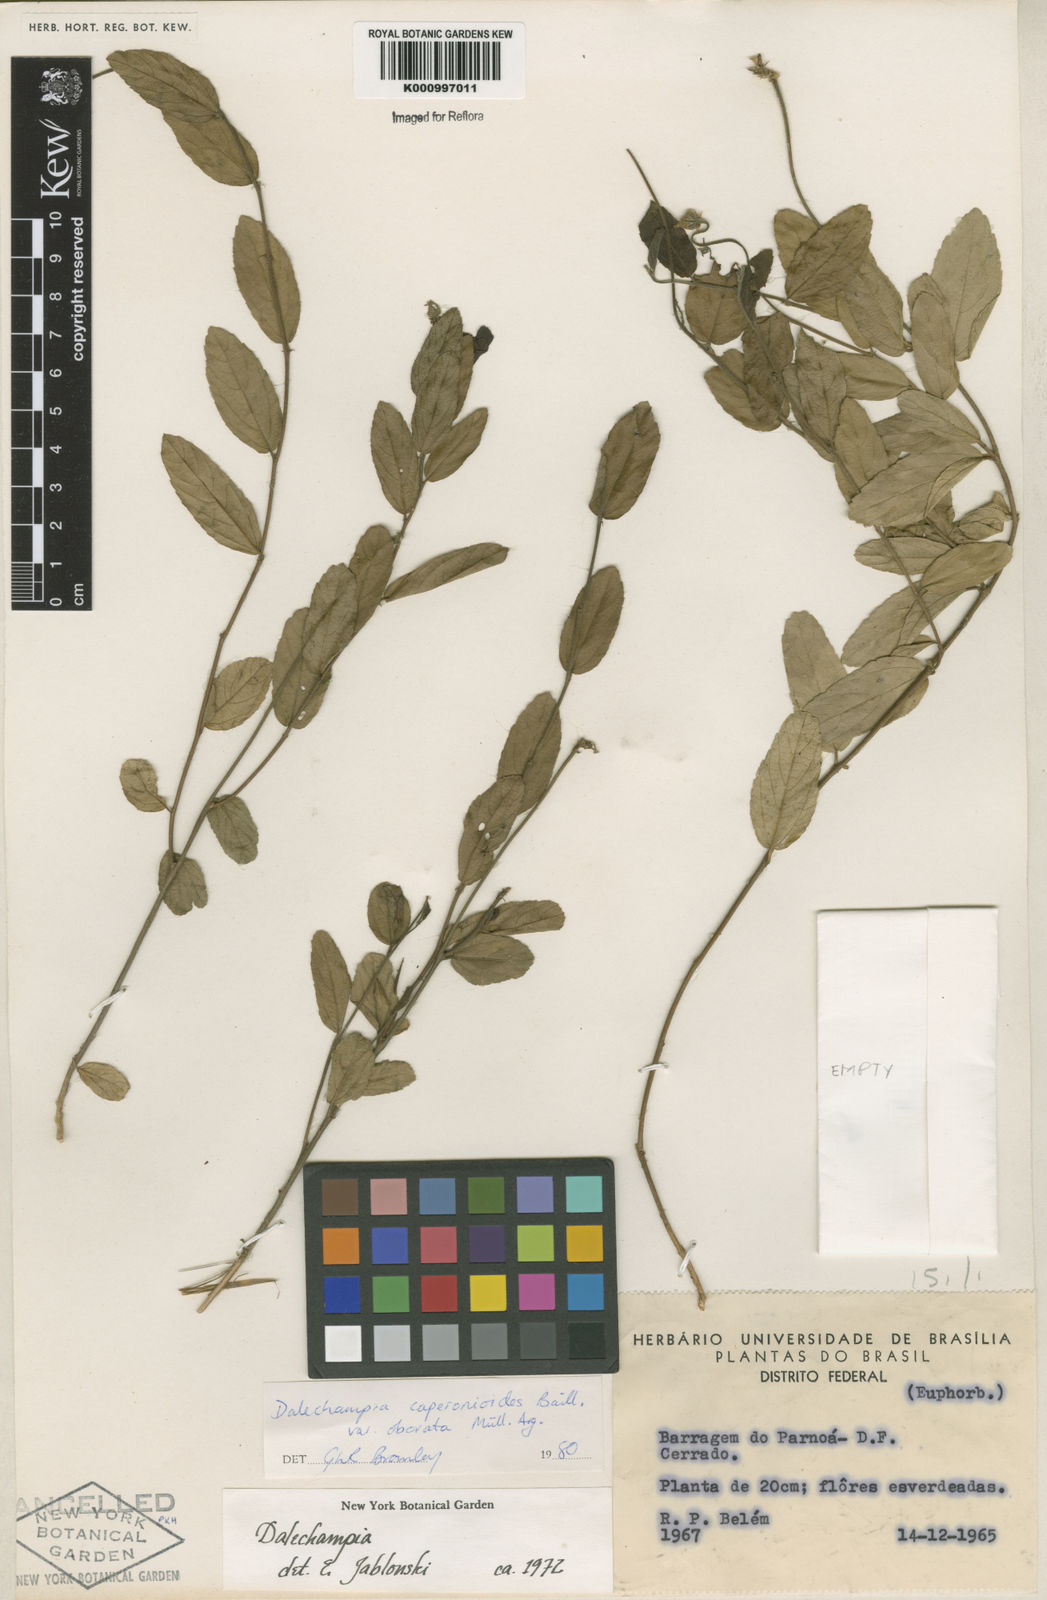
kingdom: Plantae
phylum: Tracheophyta
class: Magnoliopsida
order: Malpighiales
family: Euphorbiaceae
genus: Dalechampia
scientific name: Dalechampia caperonioides
